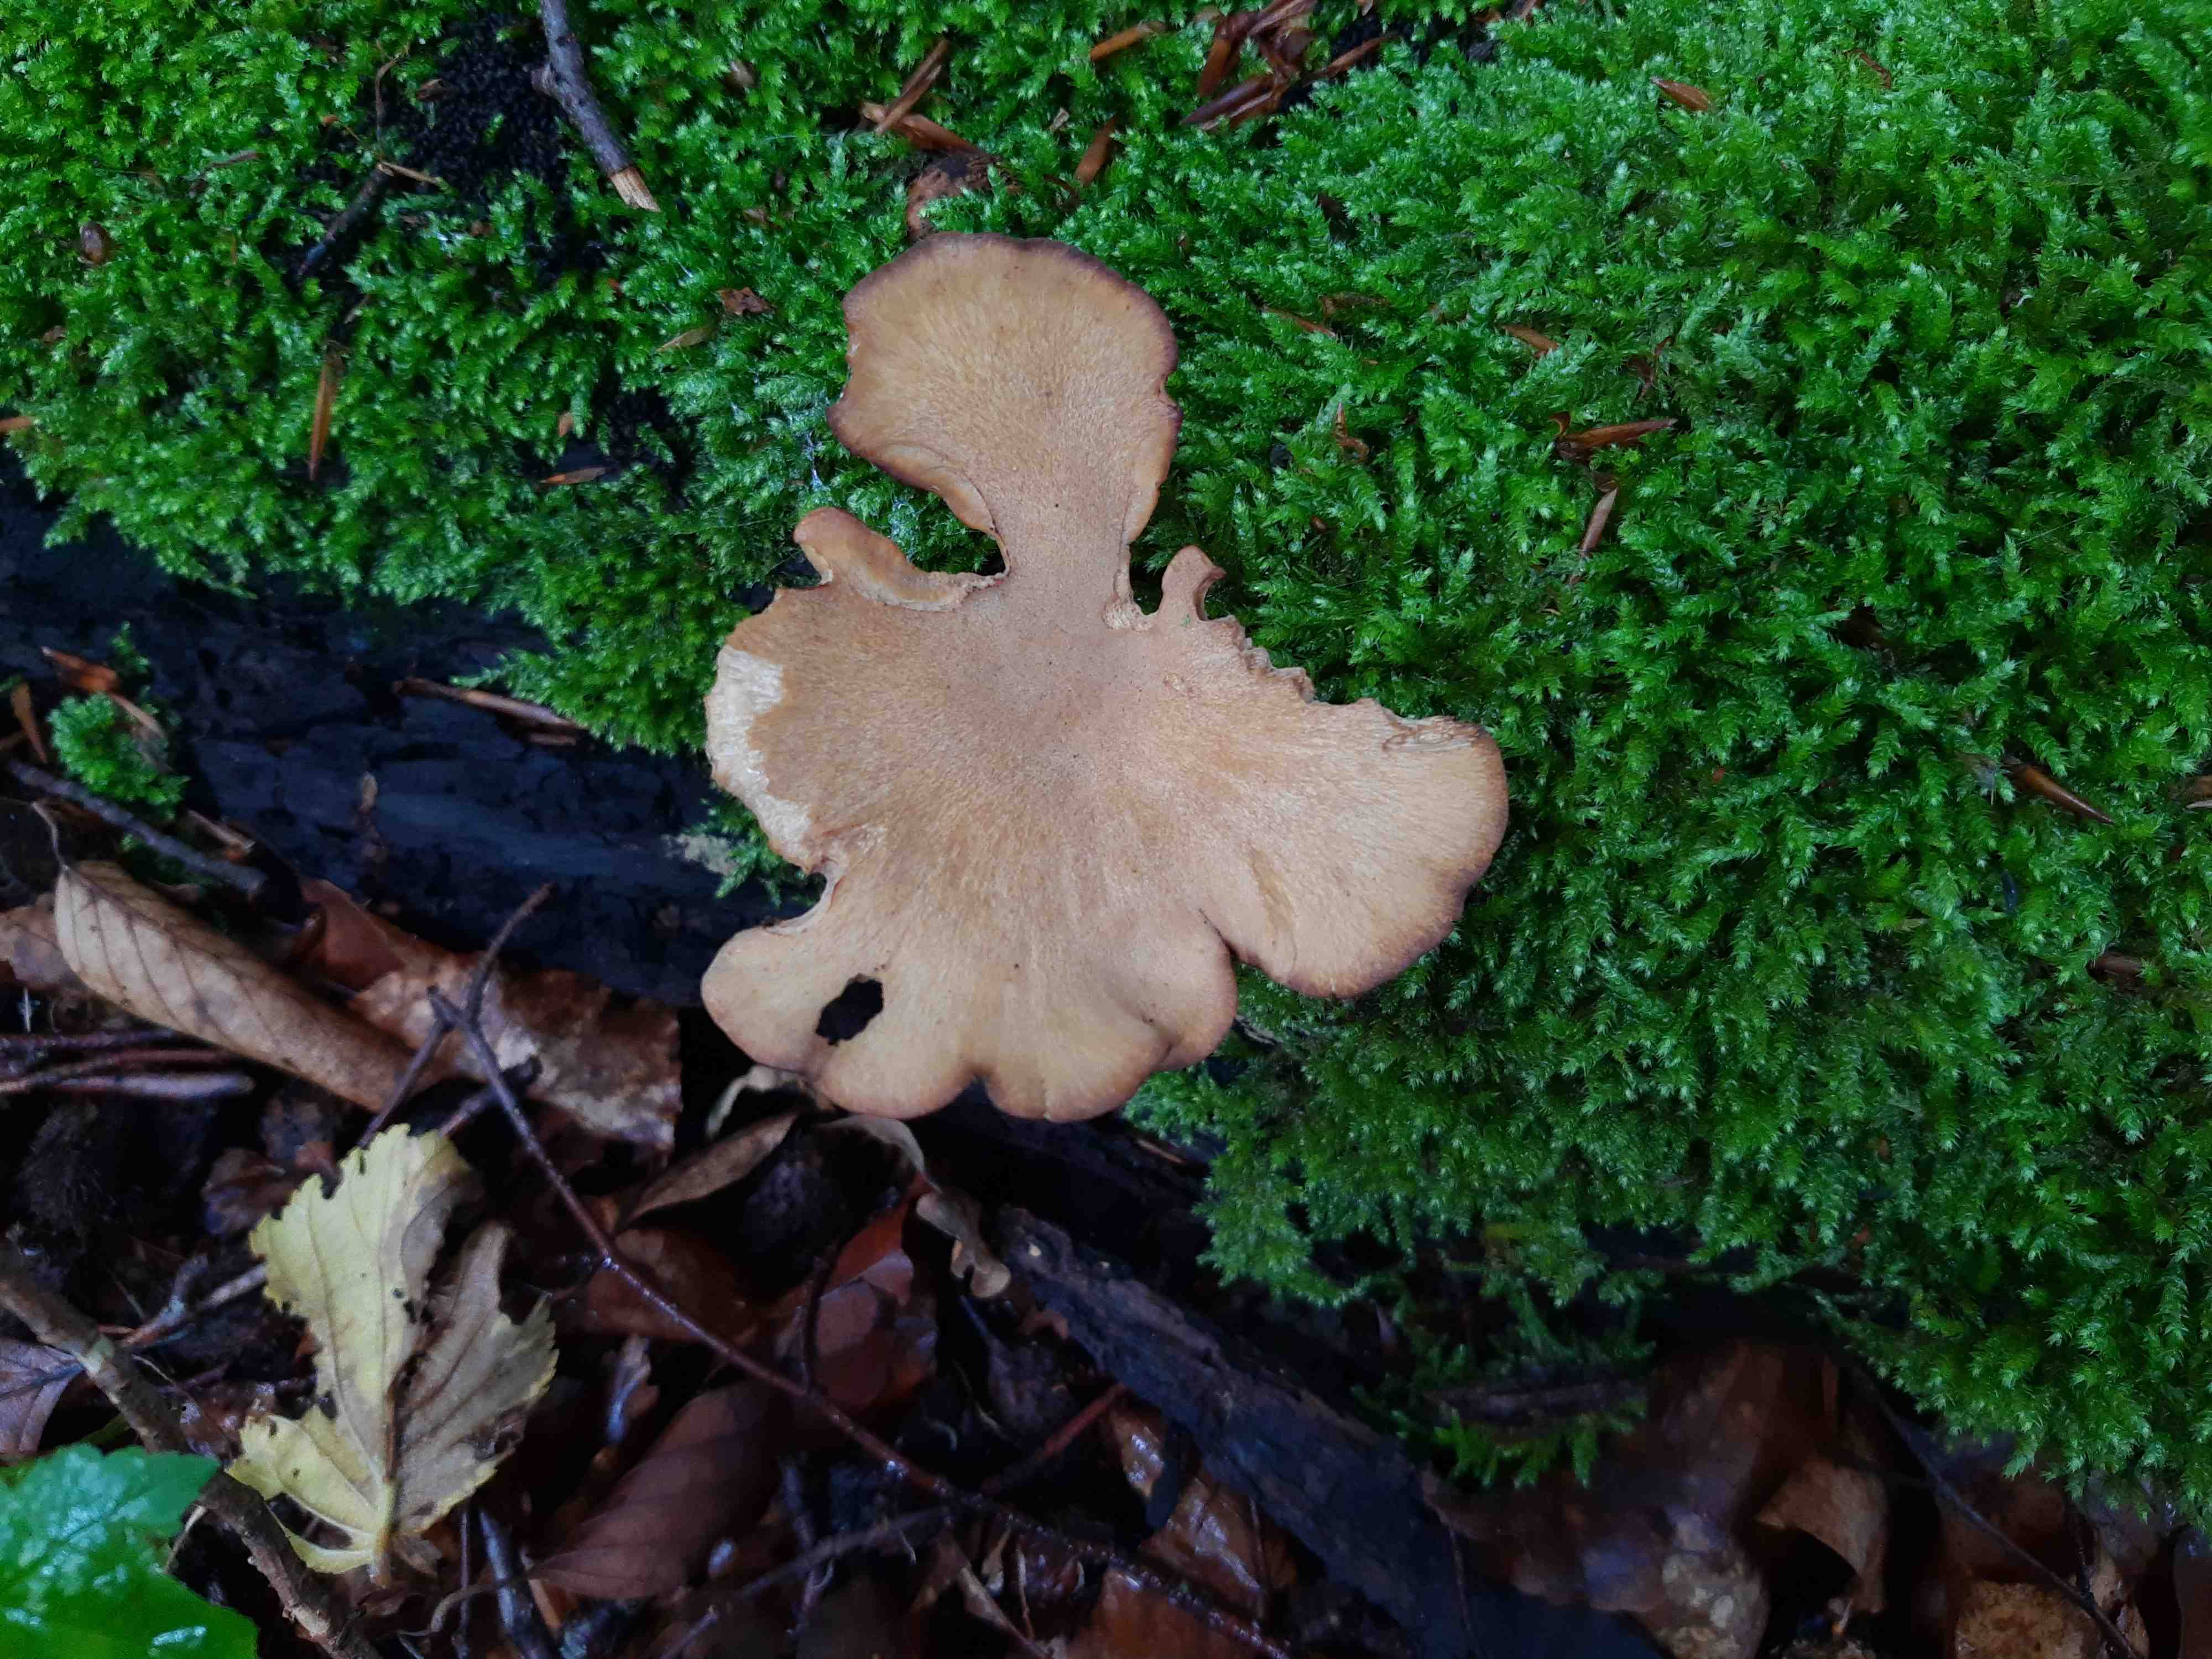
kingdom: Fungi
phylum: Basidiomycota
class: Agaricomycetes
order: Polyporales
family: Polyporaceae
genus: Cerioporus
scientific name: Cerioporus varius
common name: foranderlig stilkporesvamp
